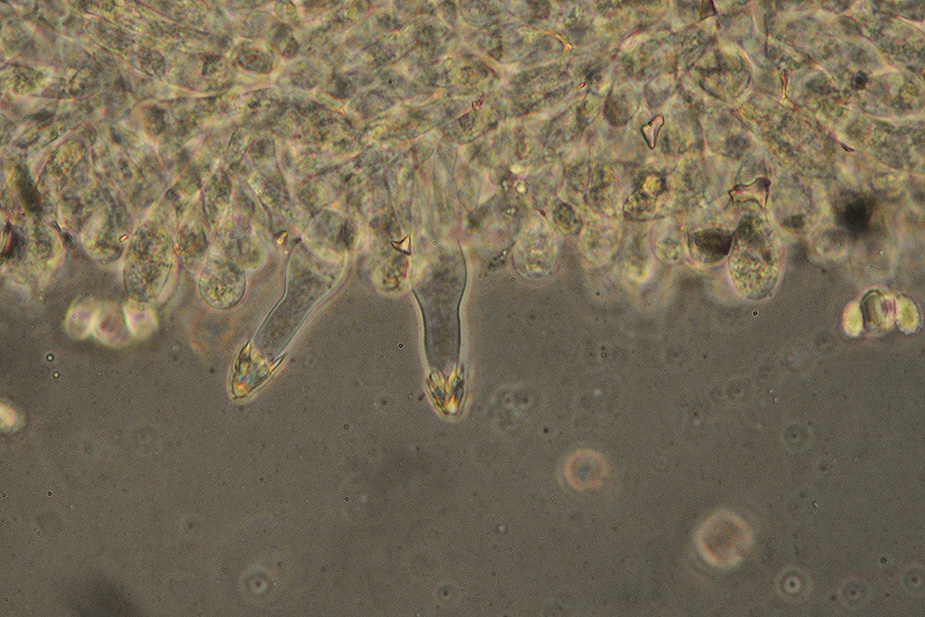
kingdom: Fungi
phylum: Basidiomycota
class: Agaricomycetes
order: Agaricales
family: Tricholomataceae
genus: Melanoleuca
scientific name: Melanoleuca bataillei
